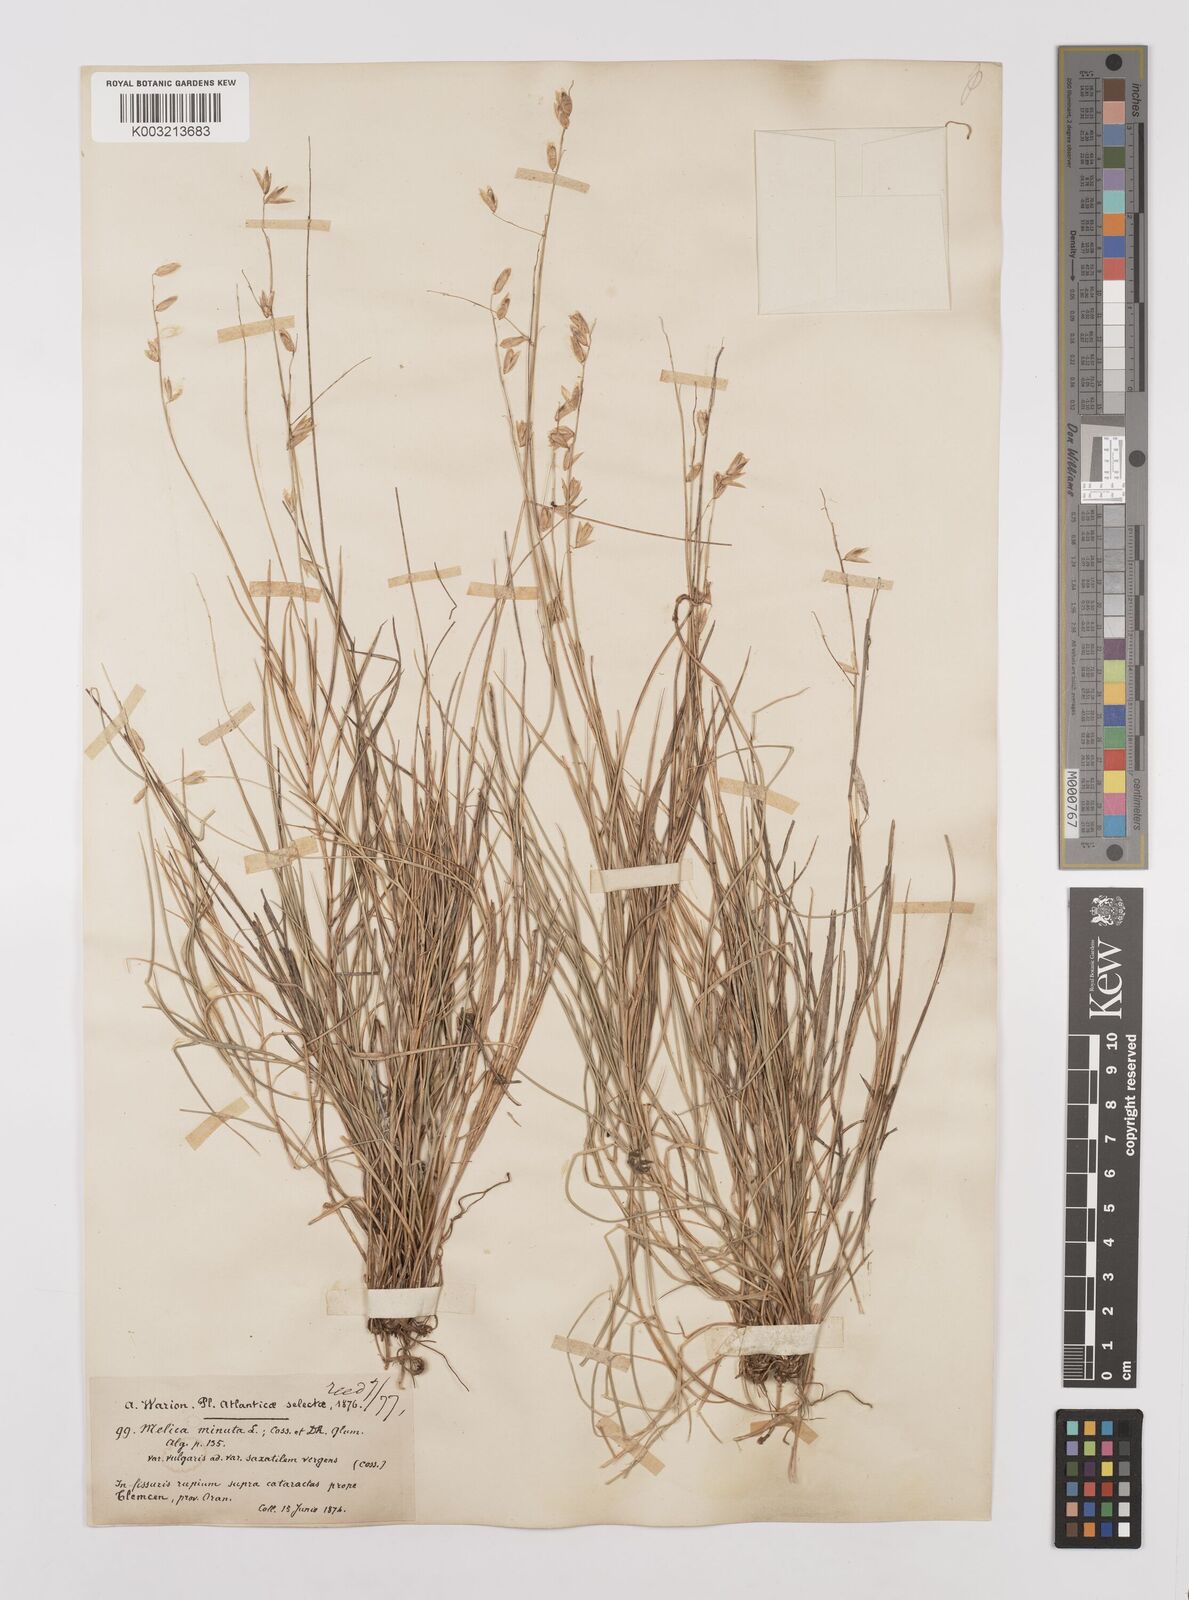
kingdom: Plantae
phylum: Tracheophyta
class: Liliopsida
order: Poales
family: Poaceae
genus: Melica
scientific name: Melica minuta
